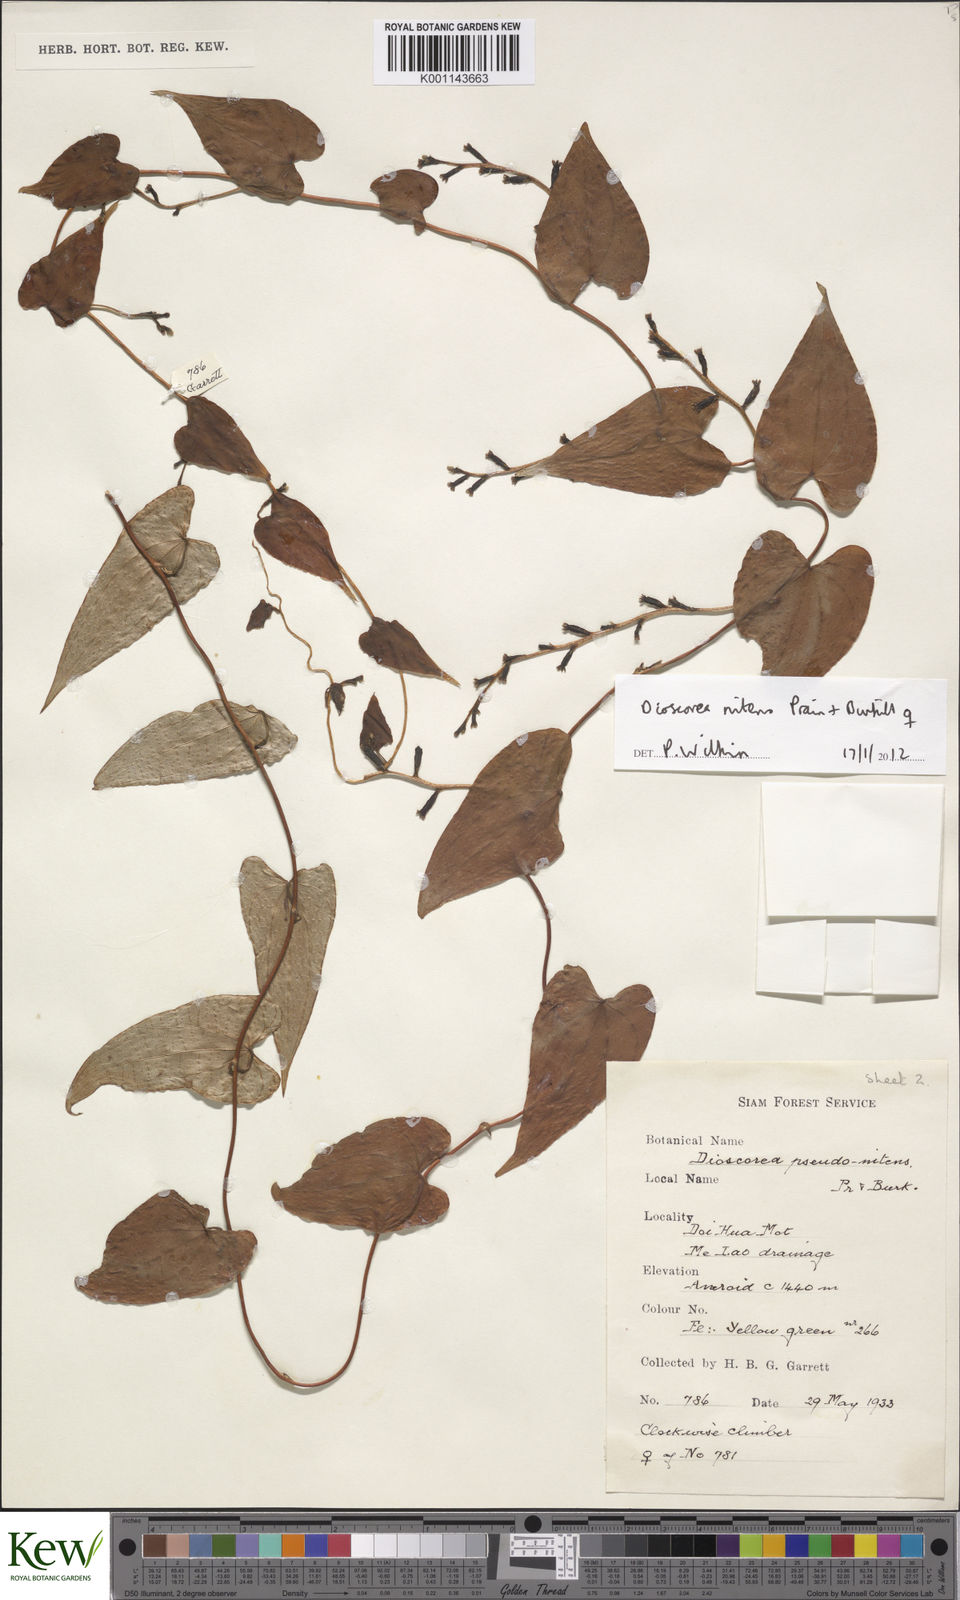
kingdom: Plantae
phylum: Tracheophyta
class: Liliopsida
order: Dioscoreales
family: Dioscoreaceae
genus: Dioscorea
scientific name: Dioscorea nitens
